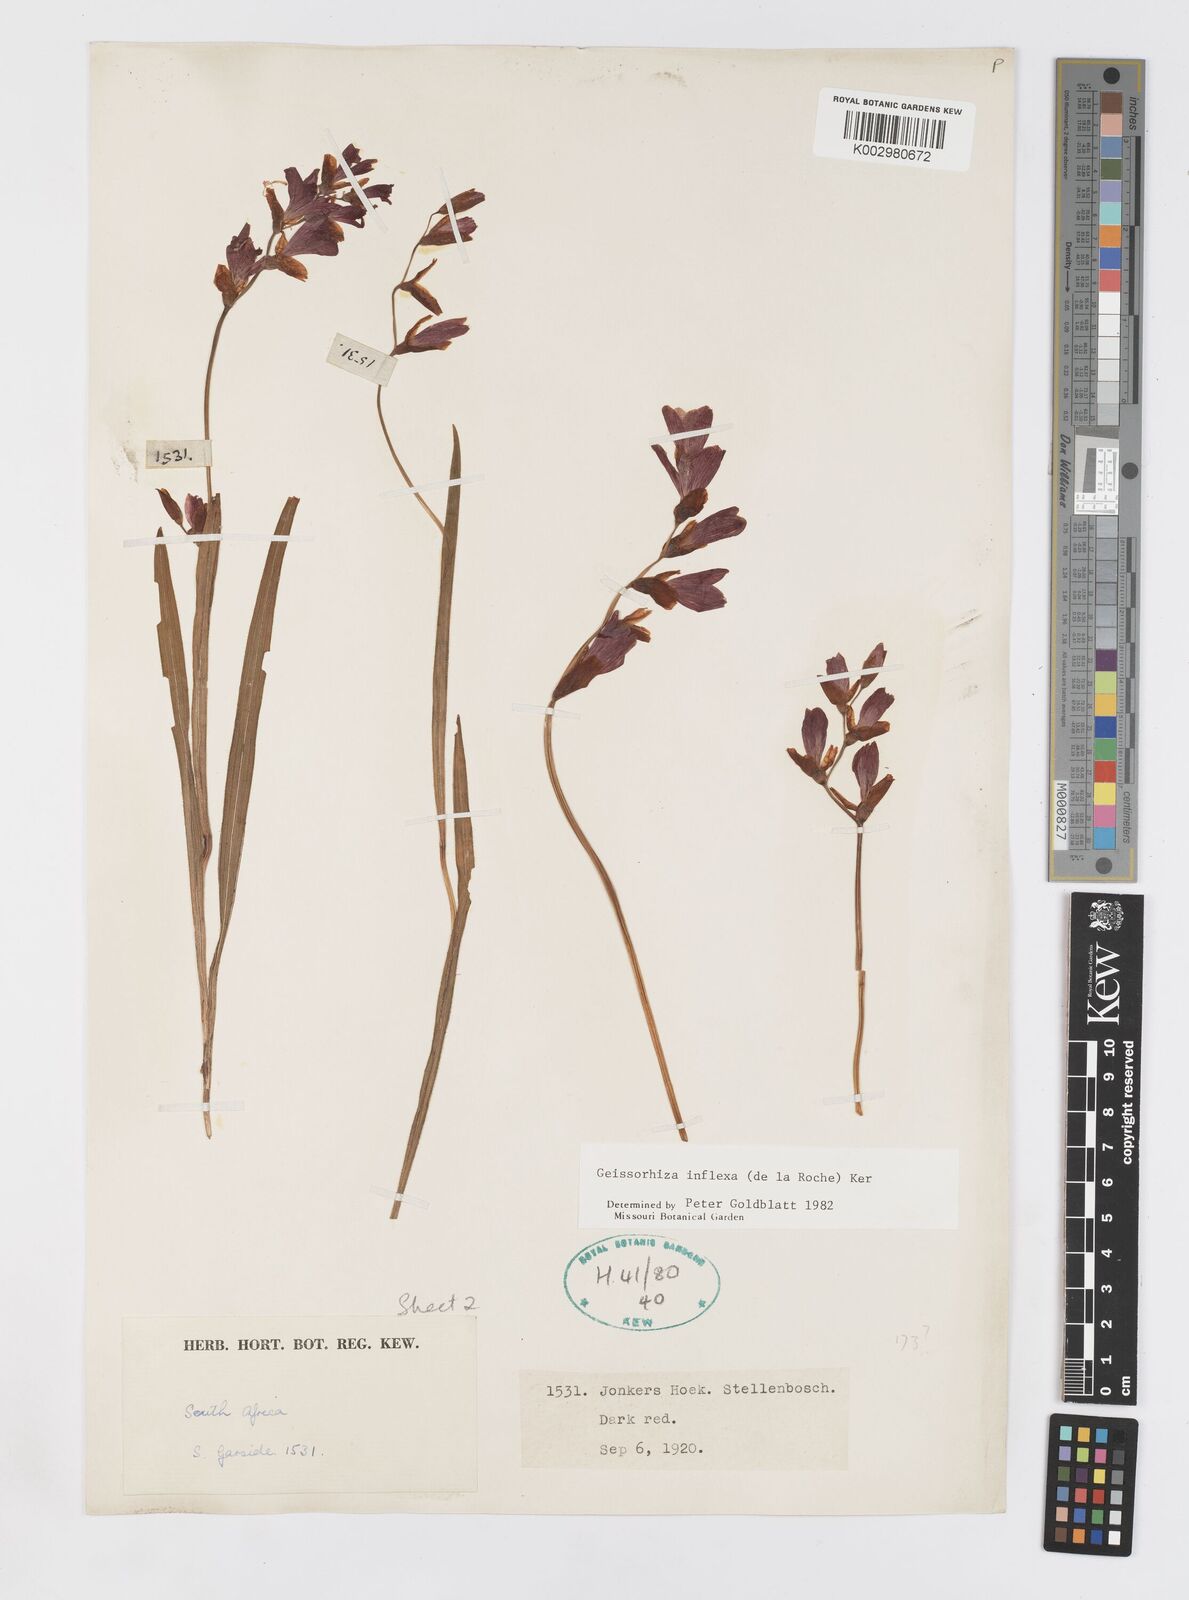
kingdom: Plantae
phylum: Tracheophyta
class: Liliopsida
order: Asparagales
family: Iridaceae
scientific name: Iridaceae
